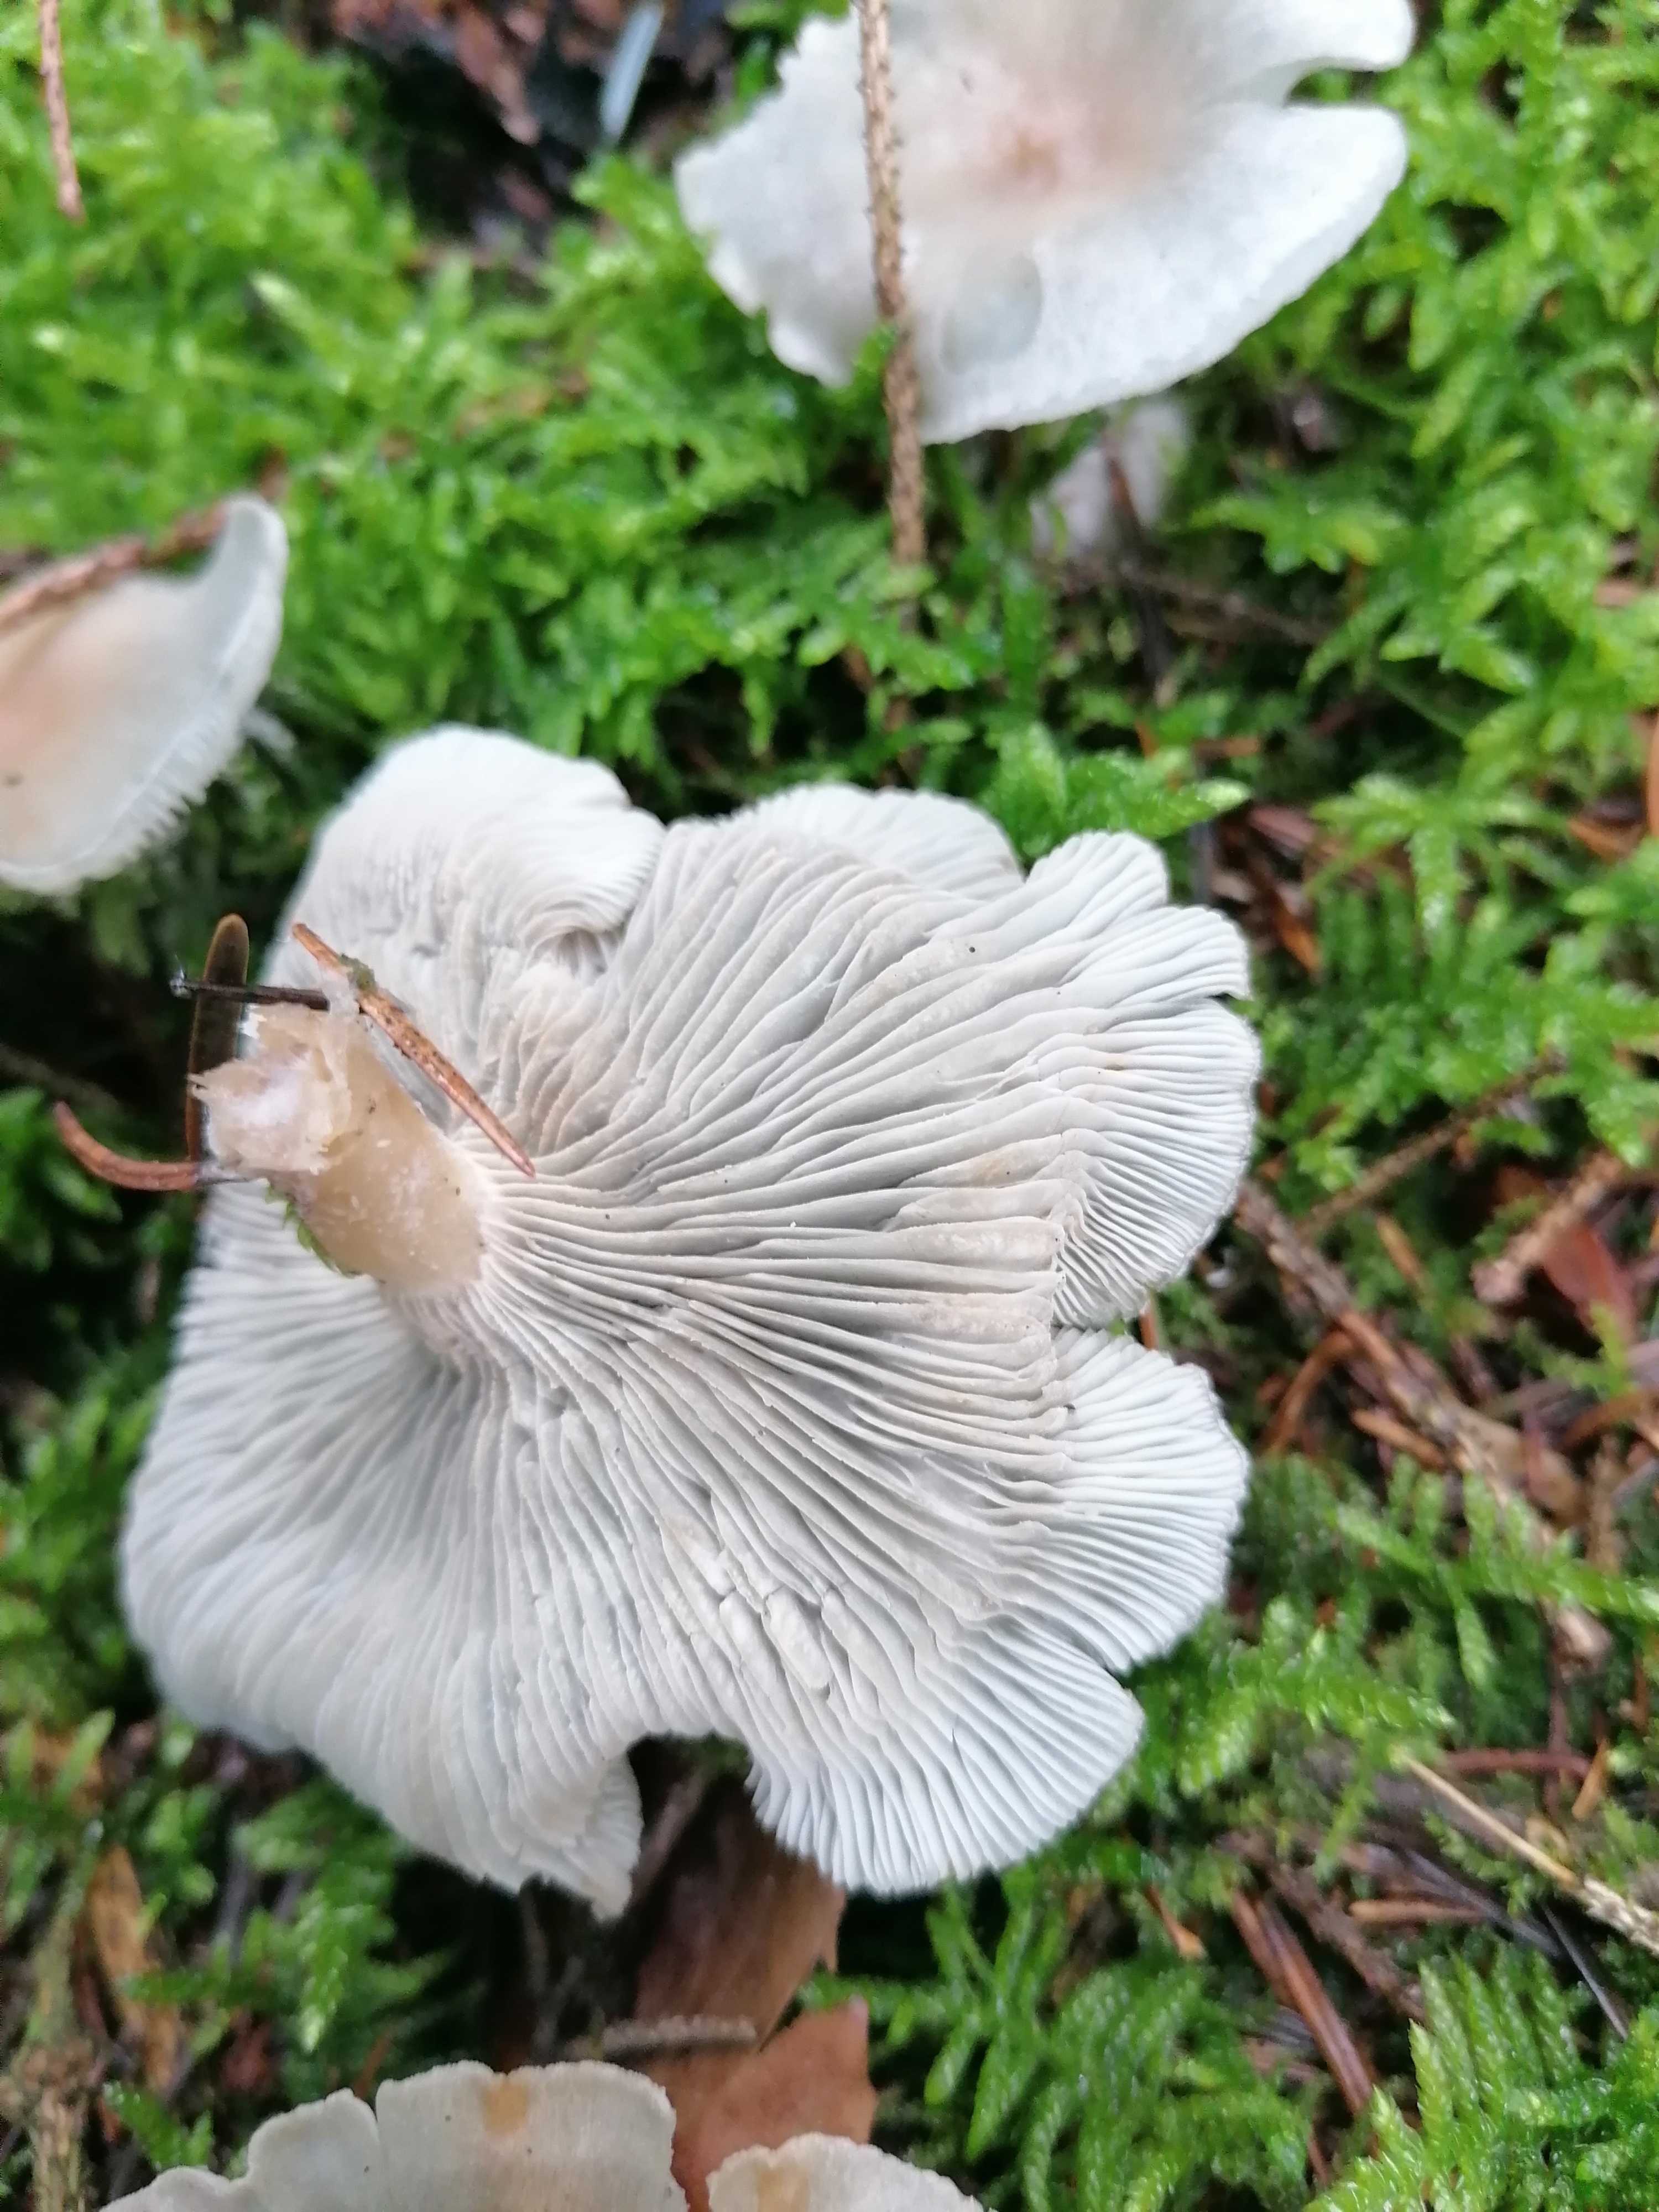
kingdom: Fungi
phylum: Basidiomycota
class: Agaricomycetes
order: Agaricales
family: Tricholomataceae
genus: Clitocybe
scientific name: Clitocybe odora
